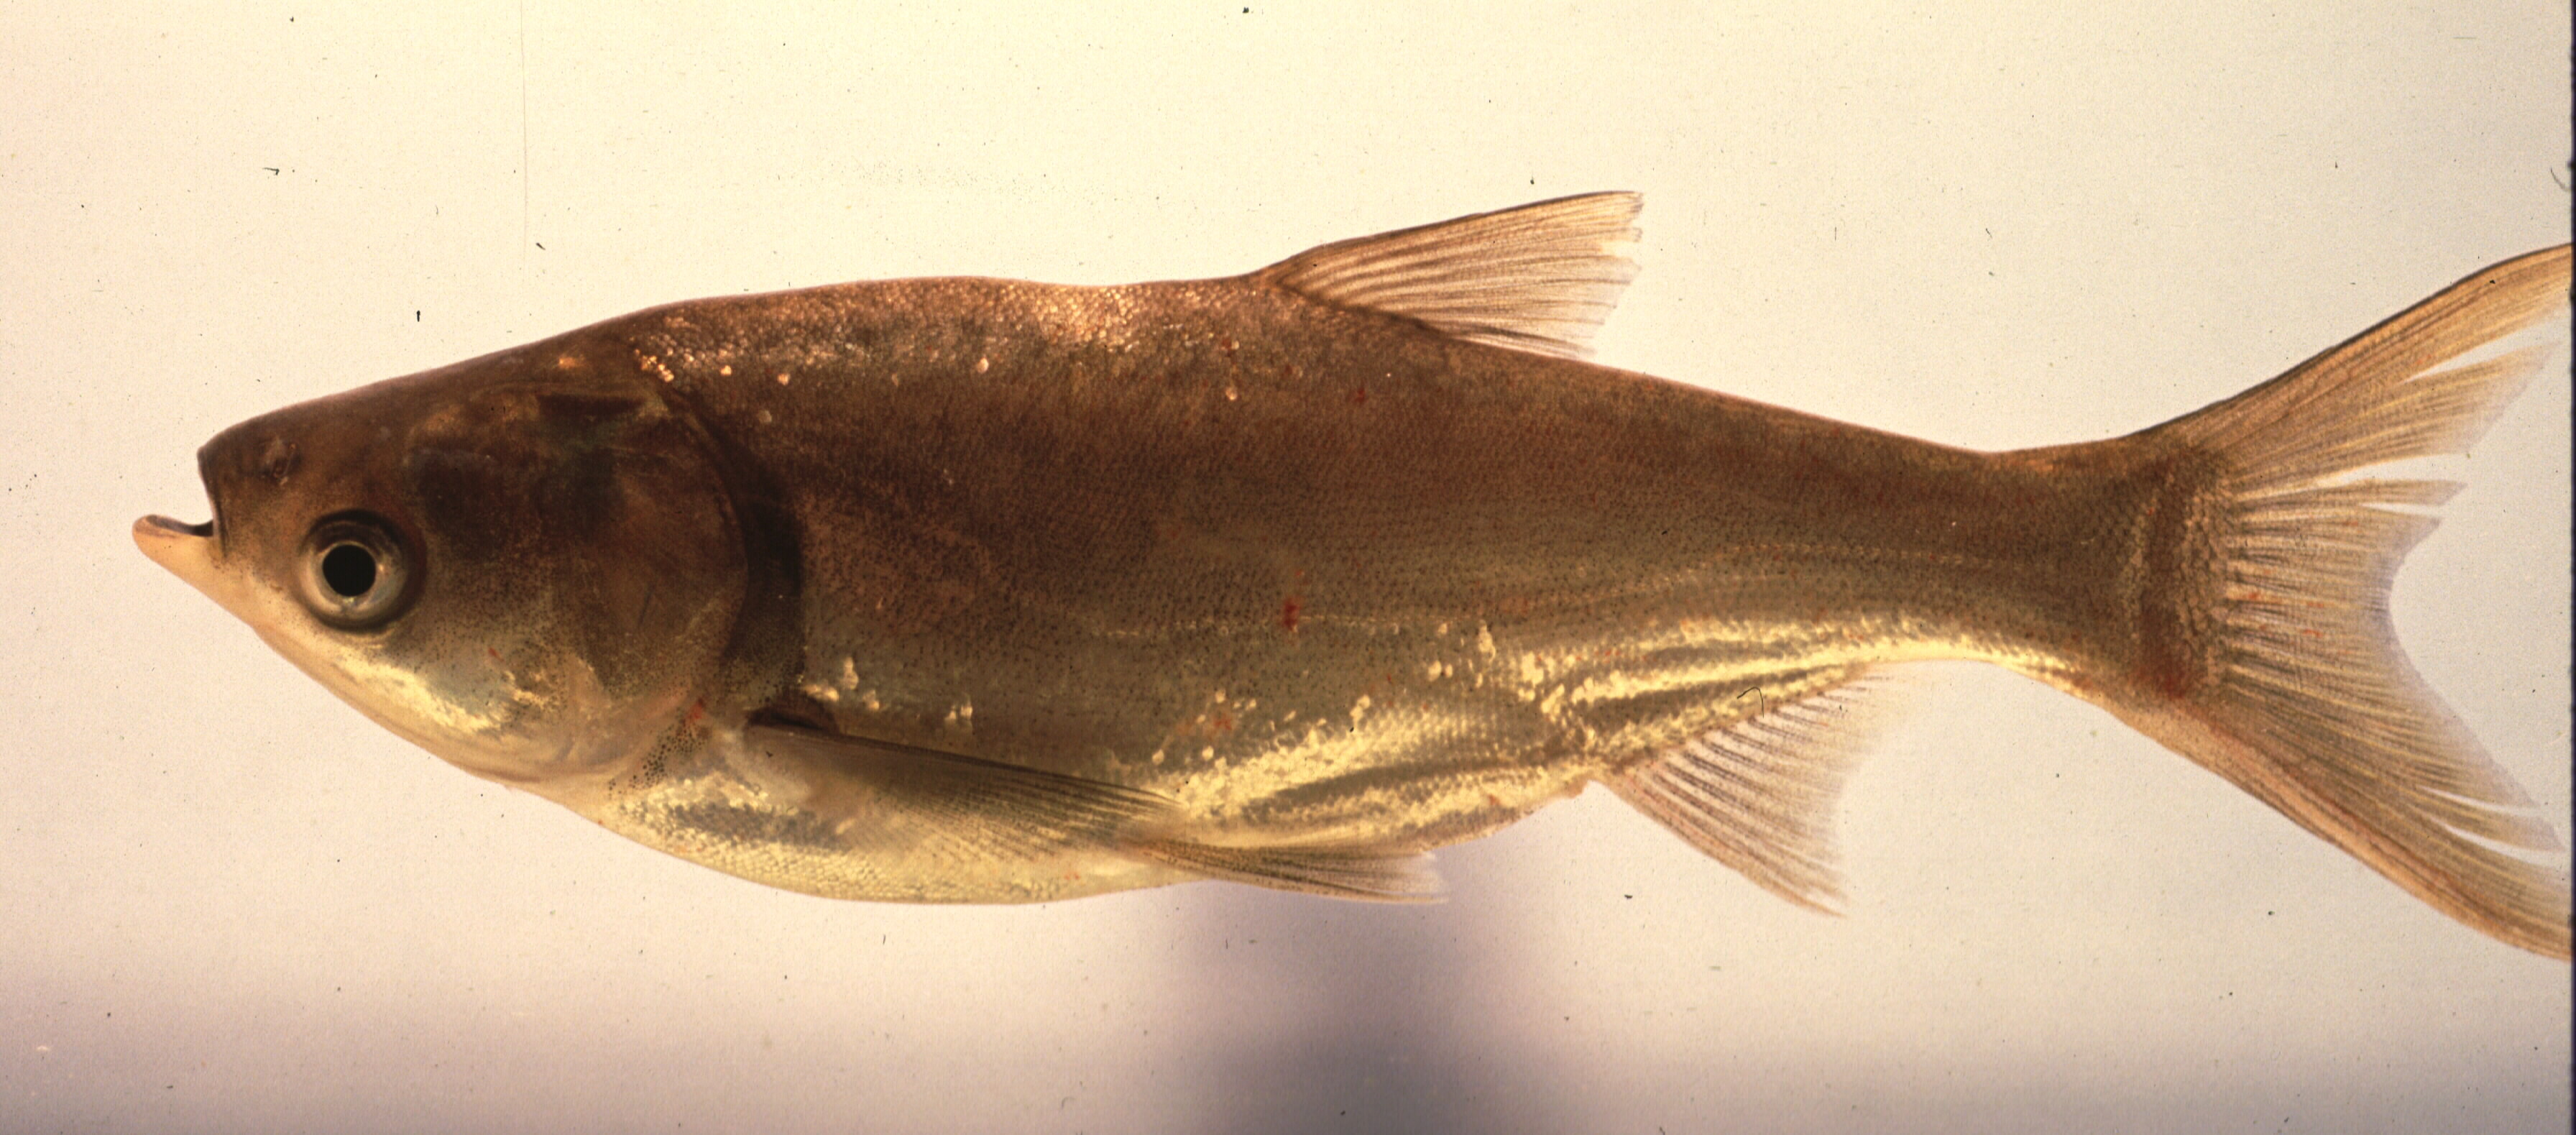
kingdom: Animalia
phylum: Chordata
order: Cypriniformes
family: Cyprinidae
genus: Hypophthalmichthys
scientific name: Hypophthalmichthys molitrix
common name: Silver carp
